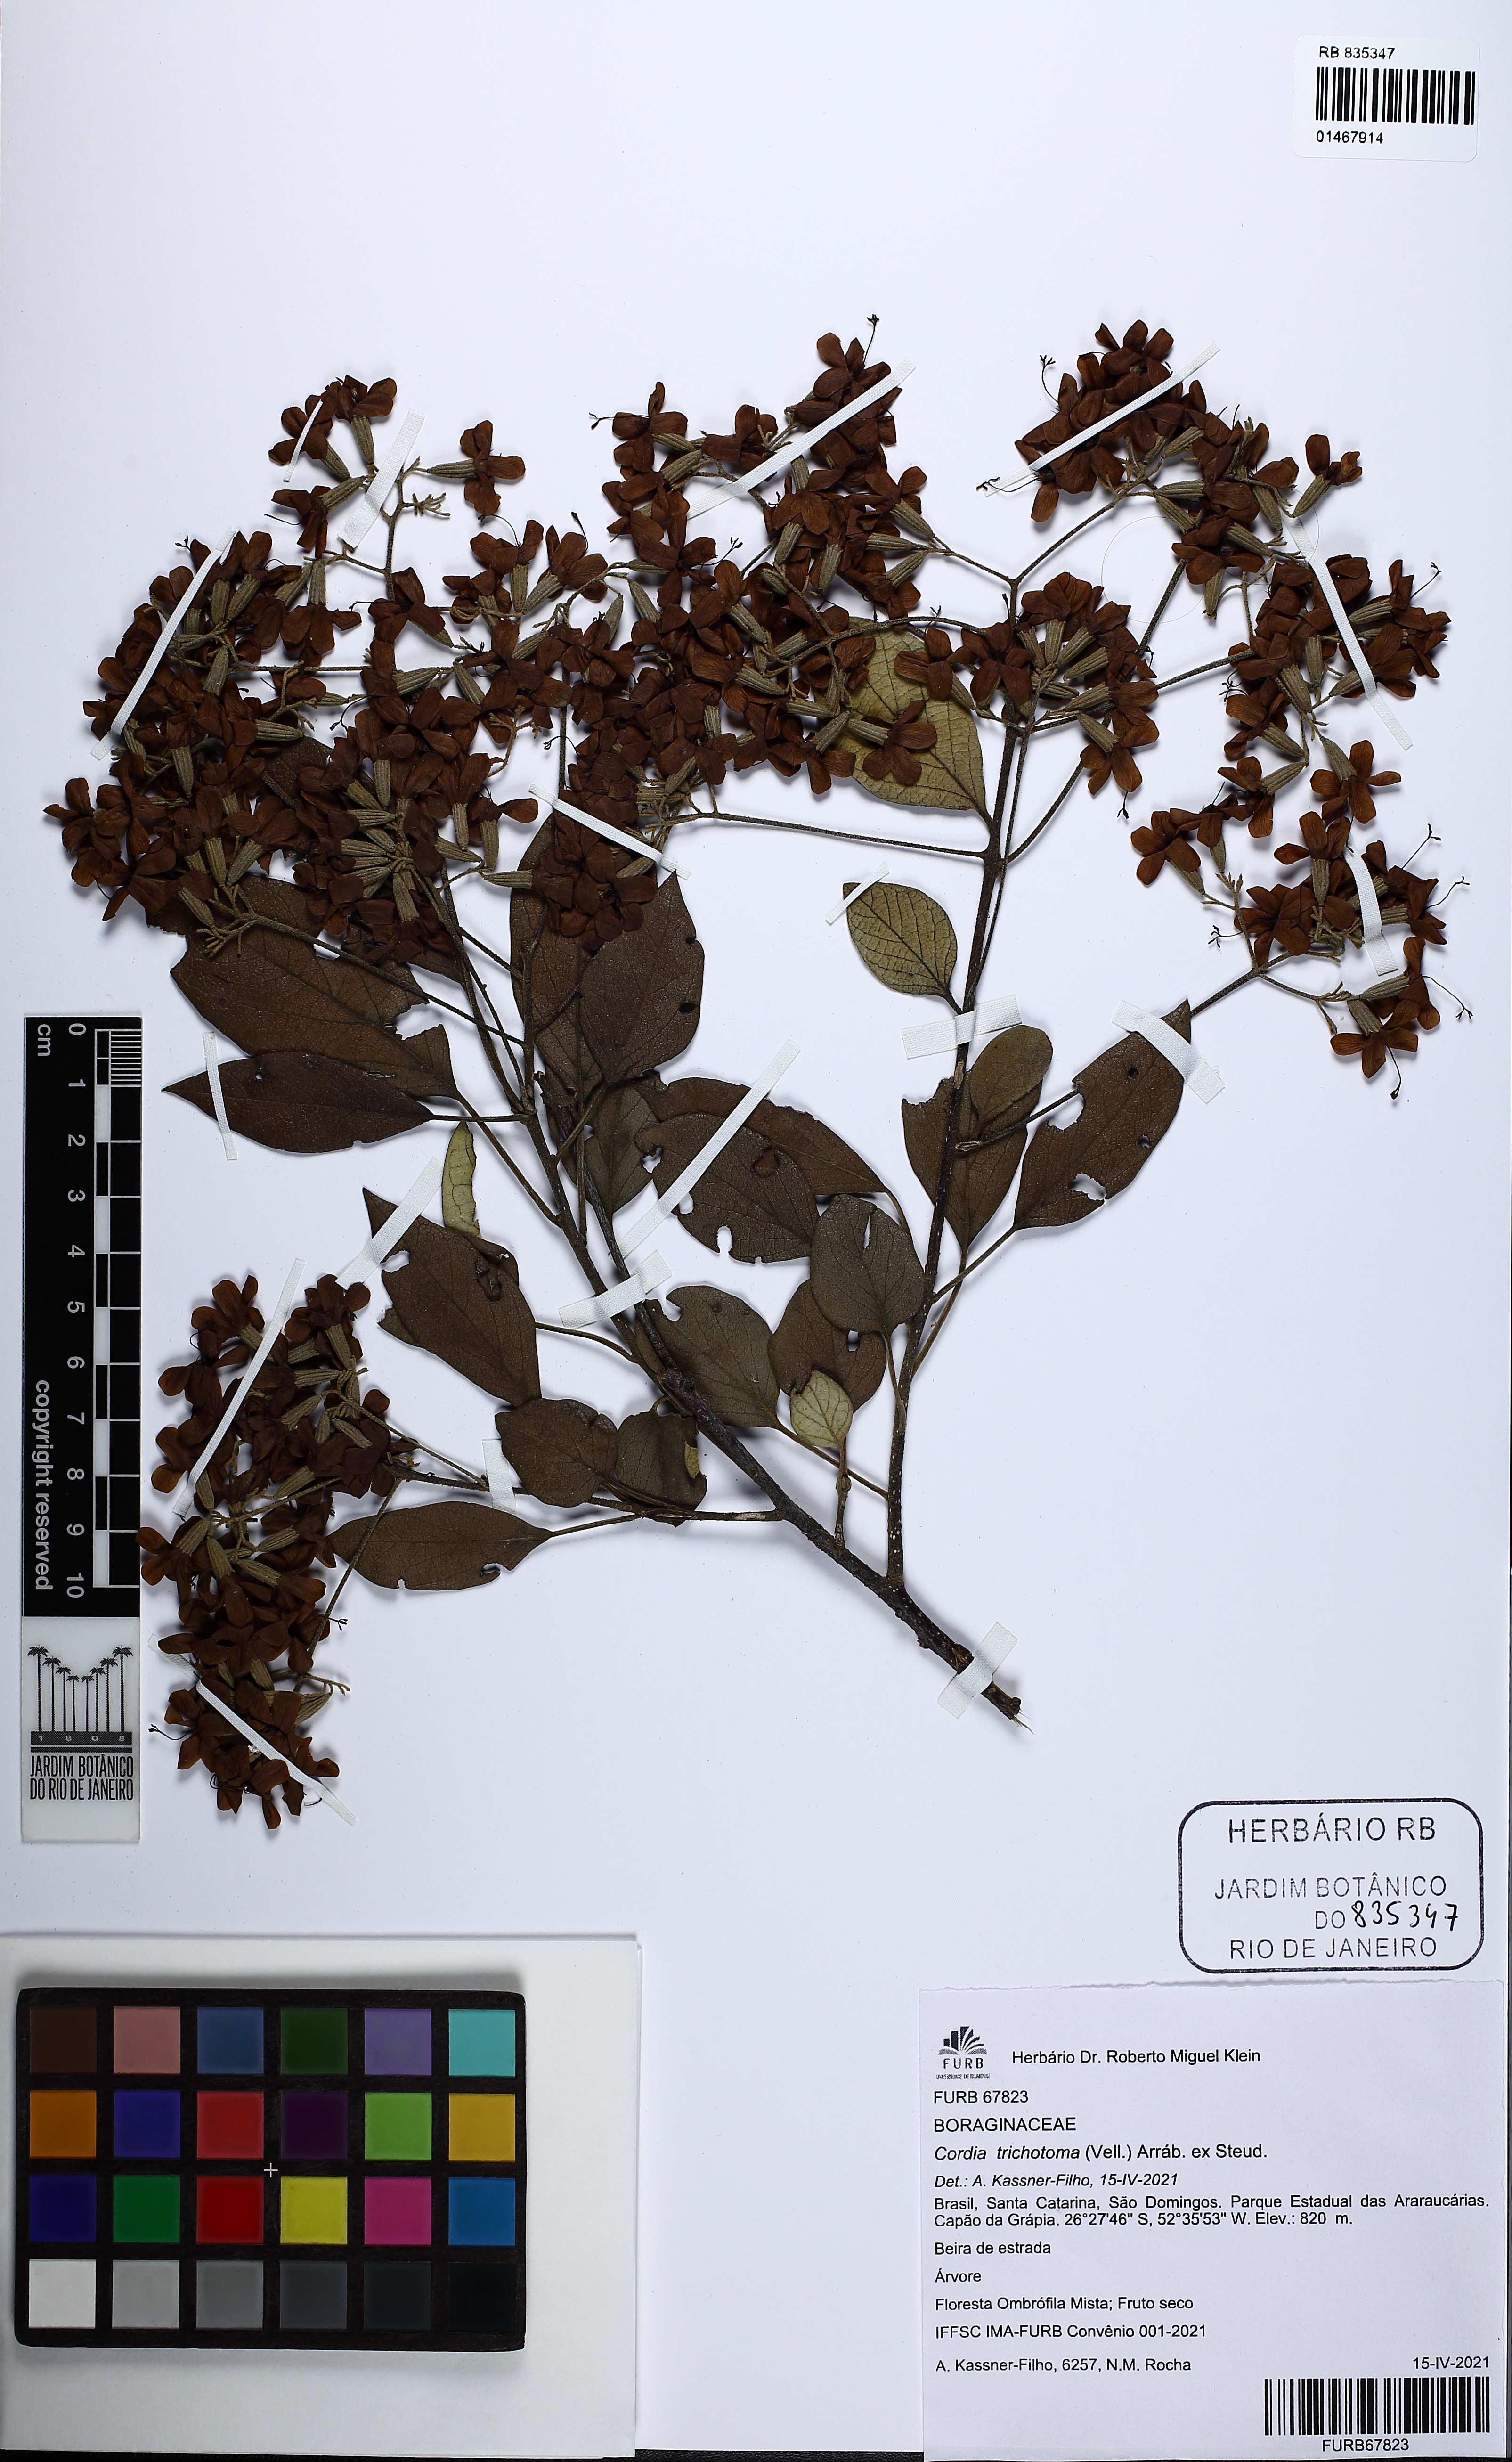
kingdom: Plantae
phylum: Tracheophyta
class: Magnoliopsida
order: Boraginales
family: Cordiaceae
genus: Cordia
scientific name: Cordia trichotoma
